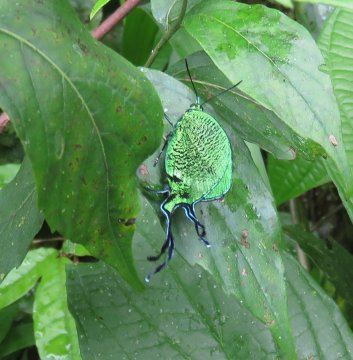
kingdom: Animalia
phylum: Arthropoda
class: Insecta
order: Lepidoptera
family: Lycaenidae
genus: Arcas
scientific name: Arcas imperialis
